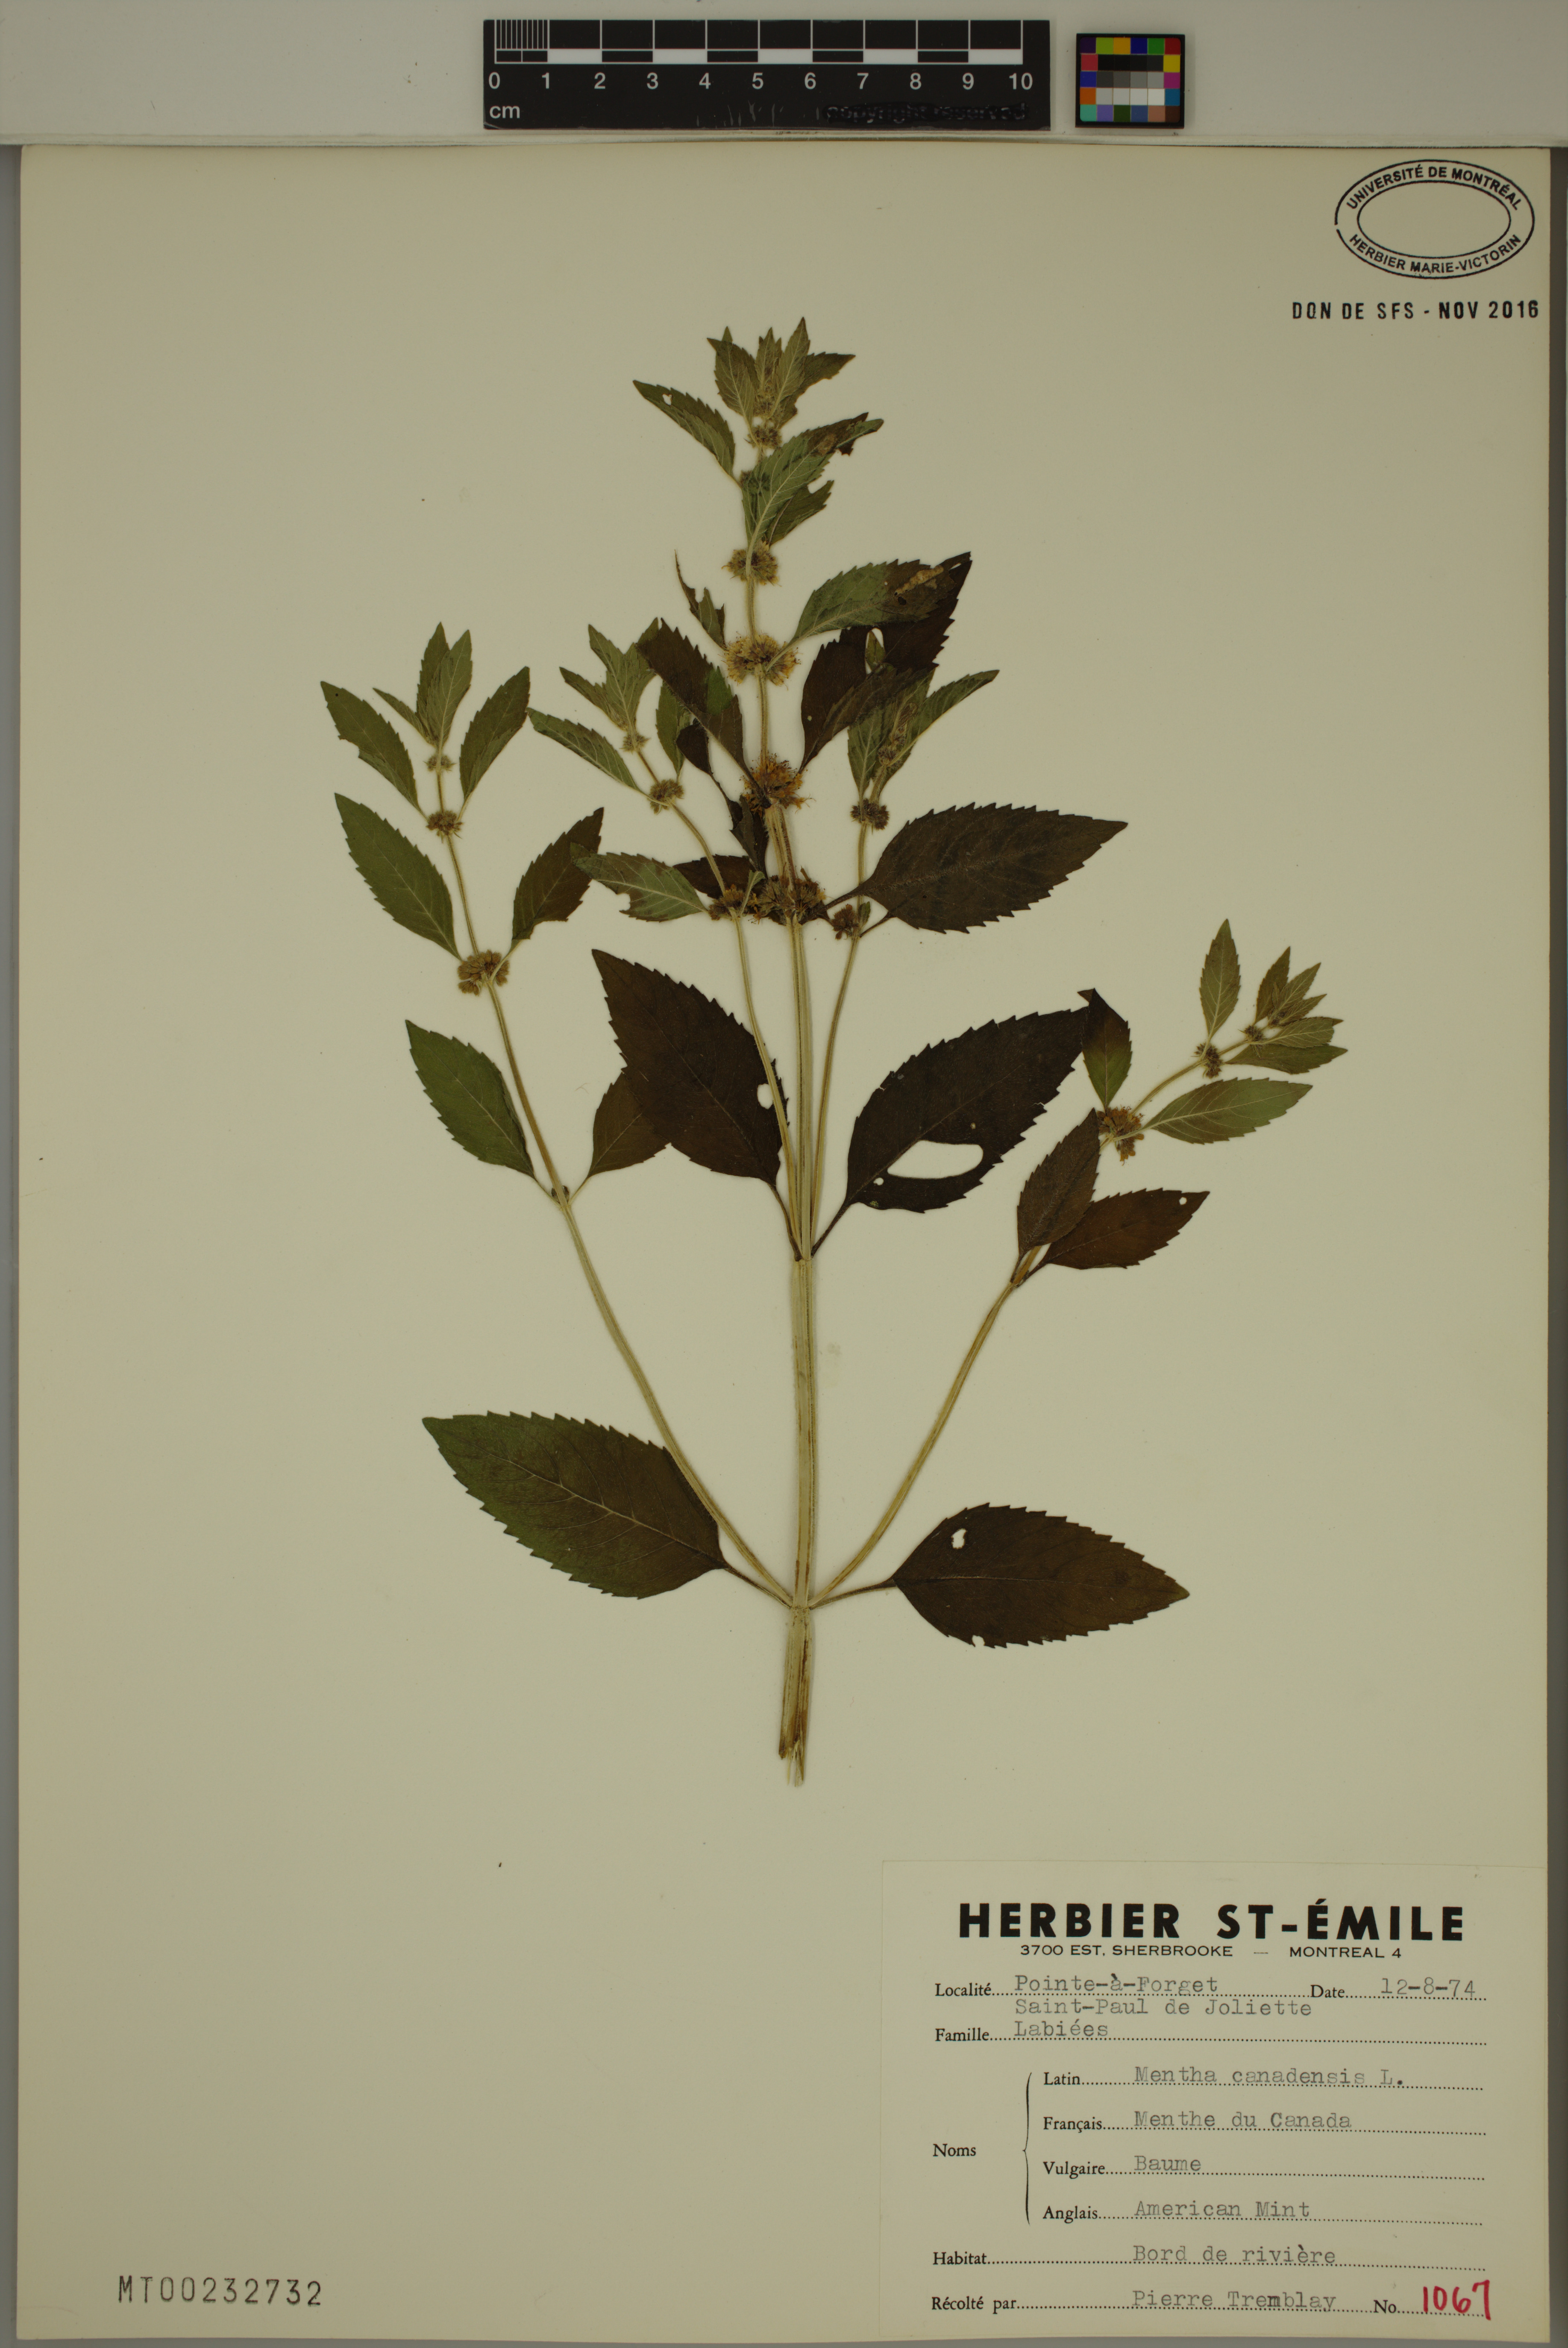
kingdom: Plantae
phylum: Tracheophyta
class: Magnoliopsida
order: Lamiales
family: Lamiaceae
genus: Mentha
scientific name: Mentha canadensis
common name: American corn mint
